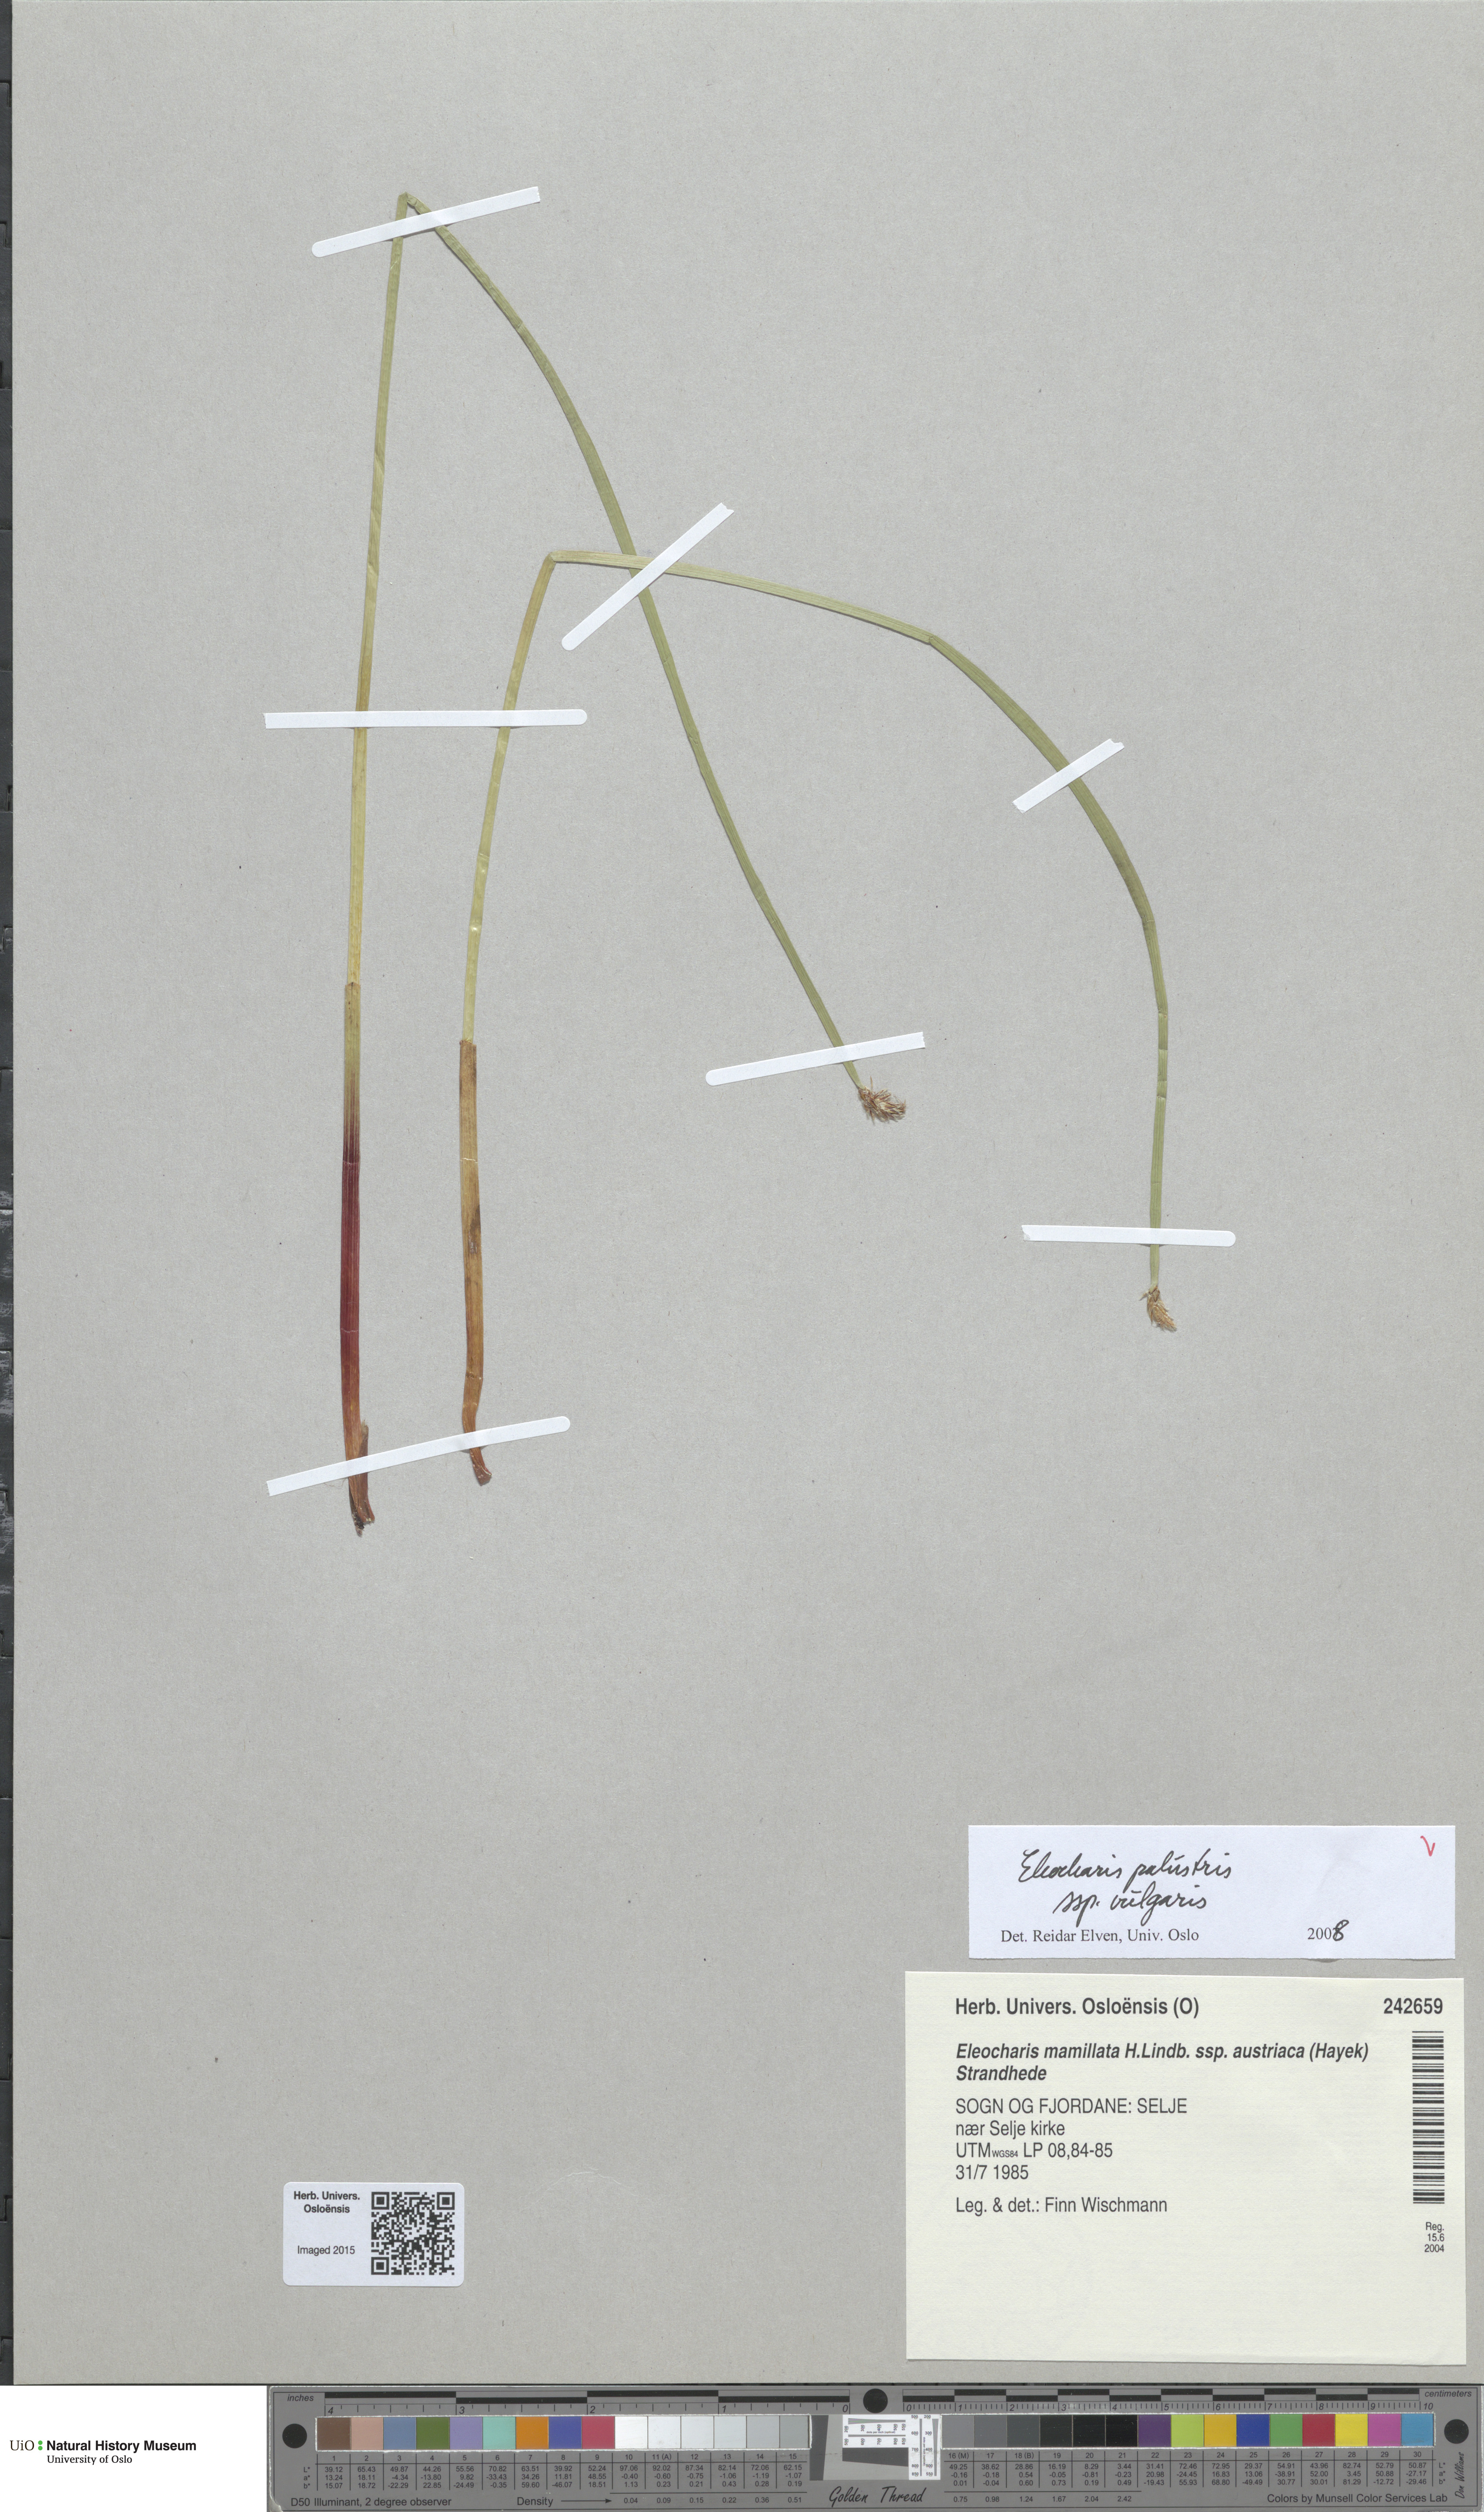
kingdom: Plantae
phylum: Tracheophyta
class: Liliopsida
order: Poales
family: Cyperaceae
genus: Eleocharis
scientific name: Eleocharis palustris
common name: Common spike-rush
